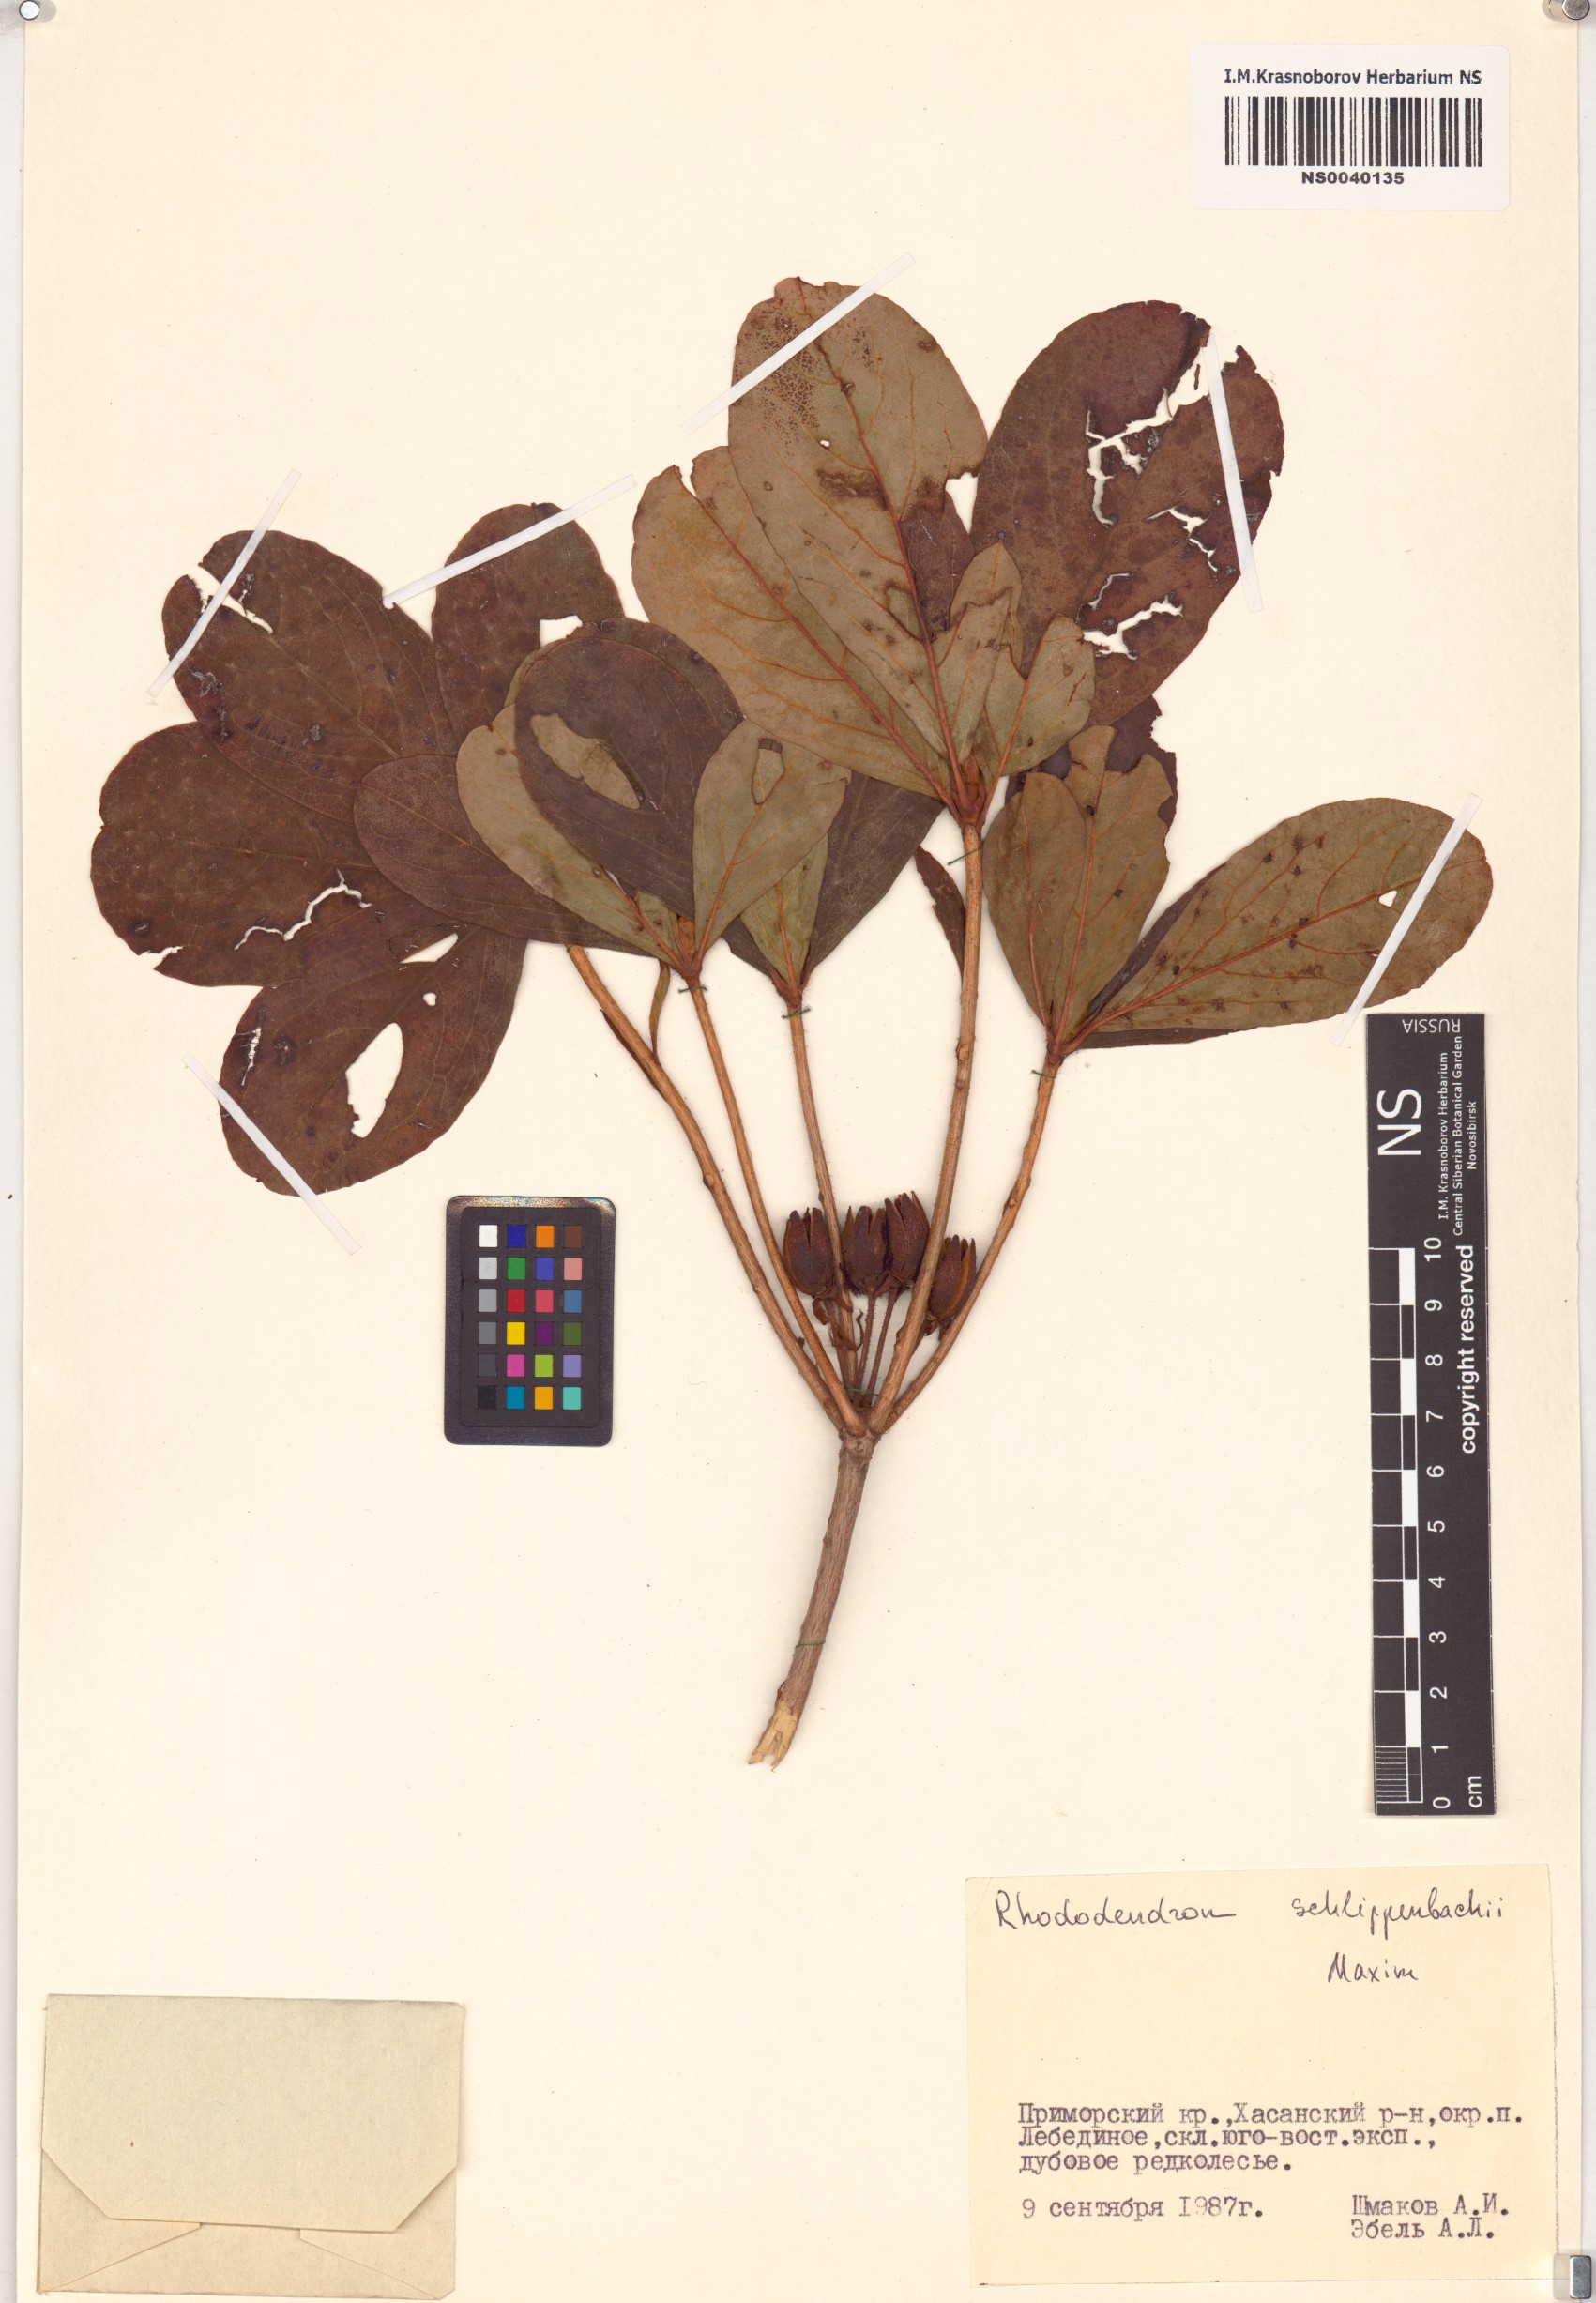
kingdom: Plantae
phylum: Tracheophyta
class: Magnoliopsida
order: Ericales
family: Ericaceae
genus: Rhododendron
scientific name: Rhododendron schlippenbachii
